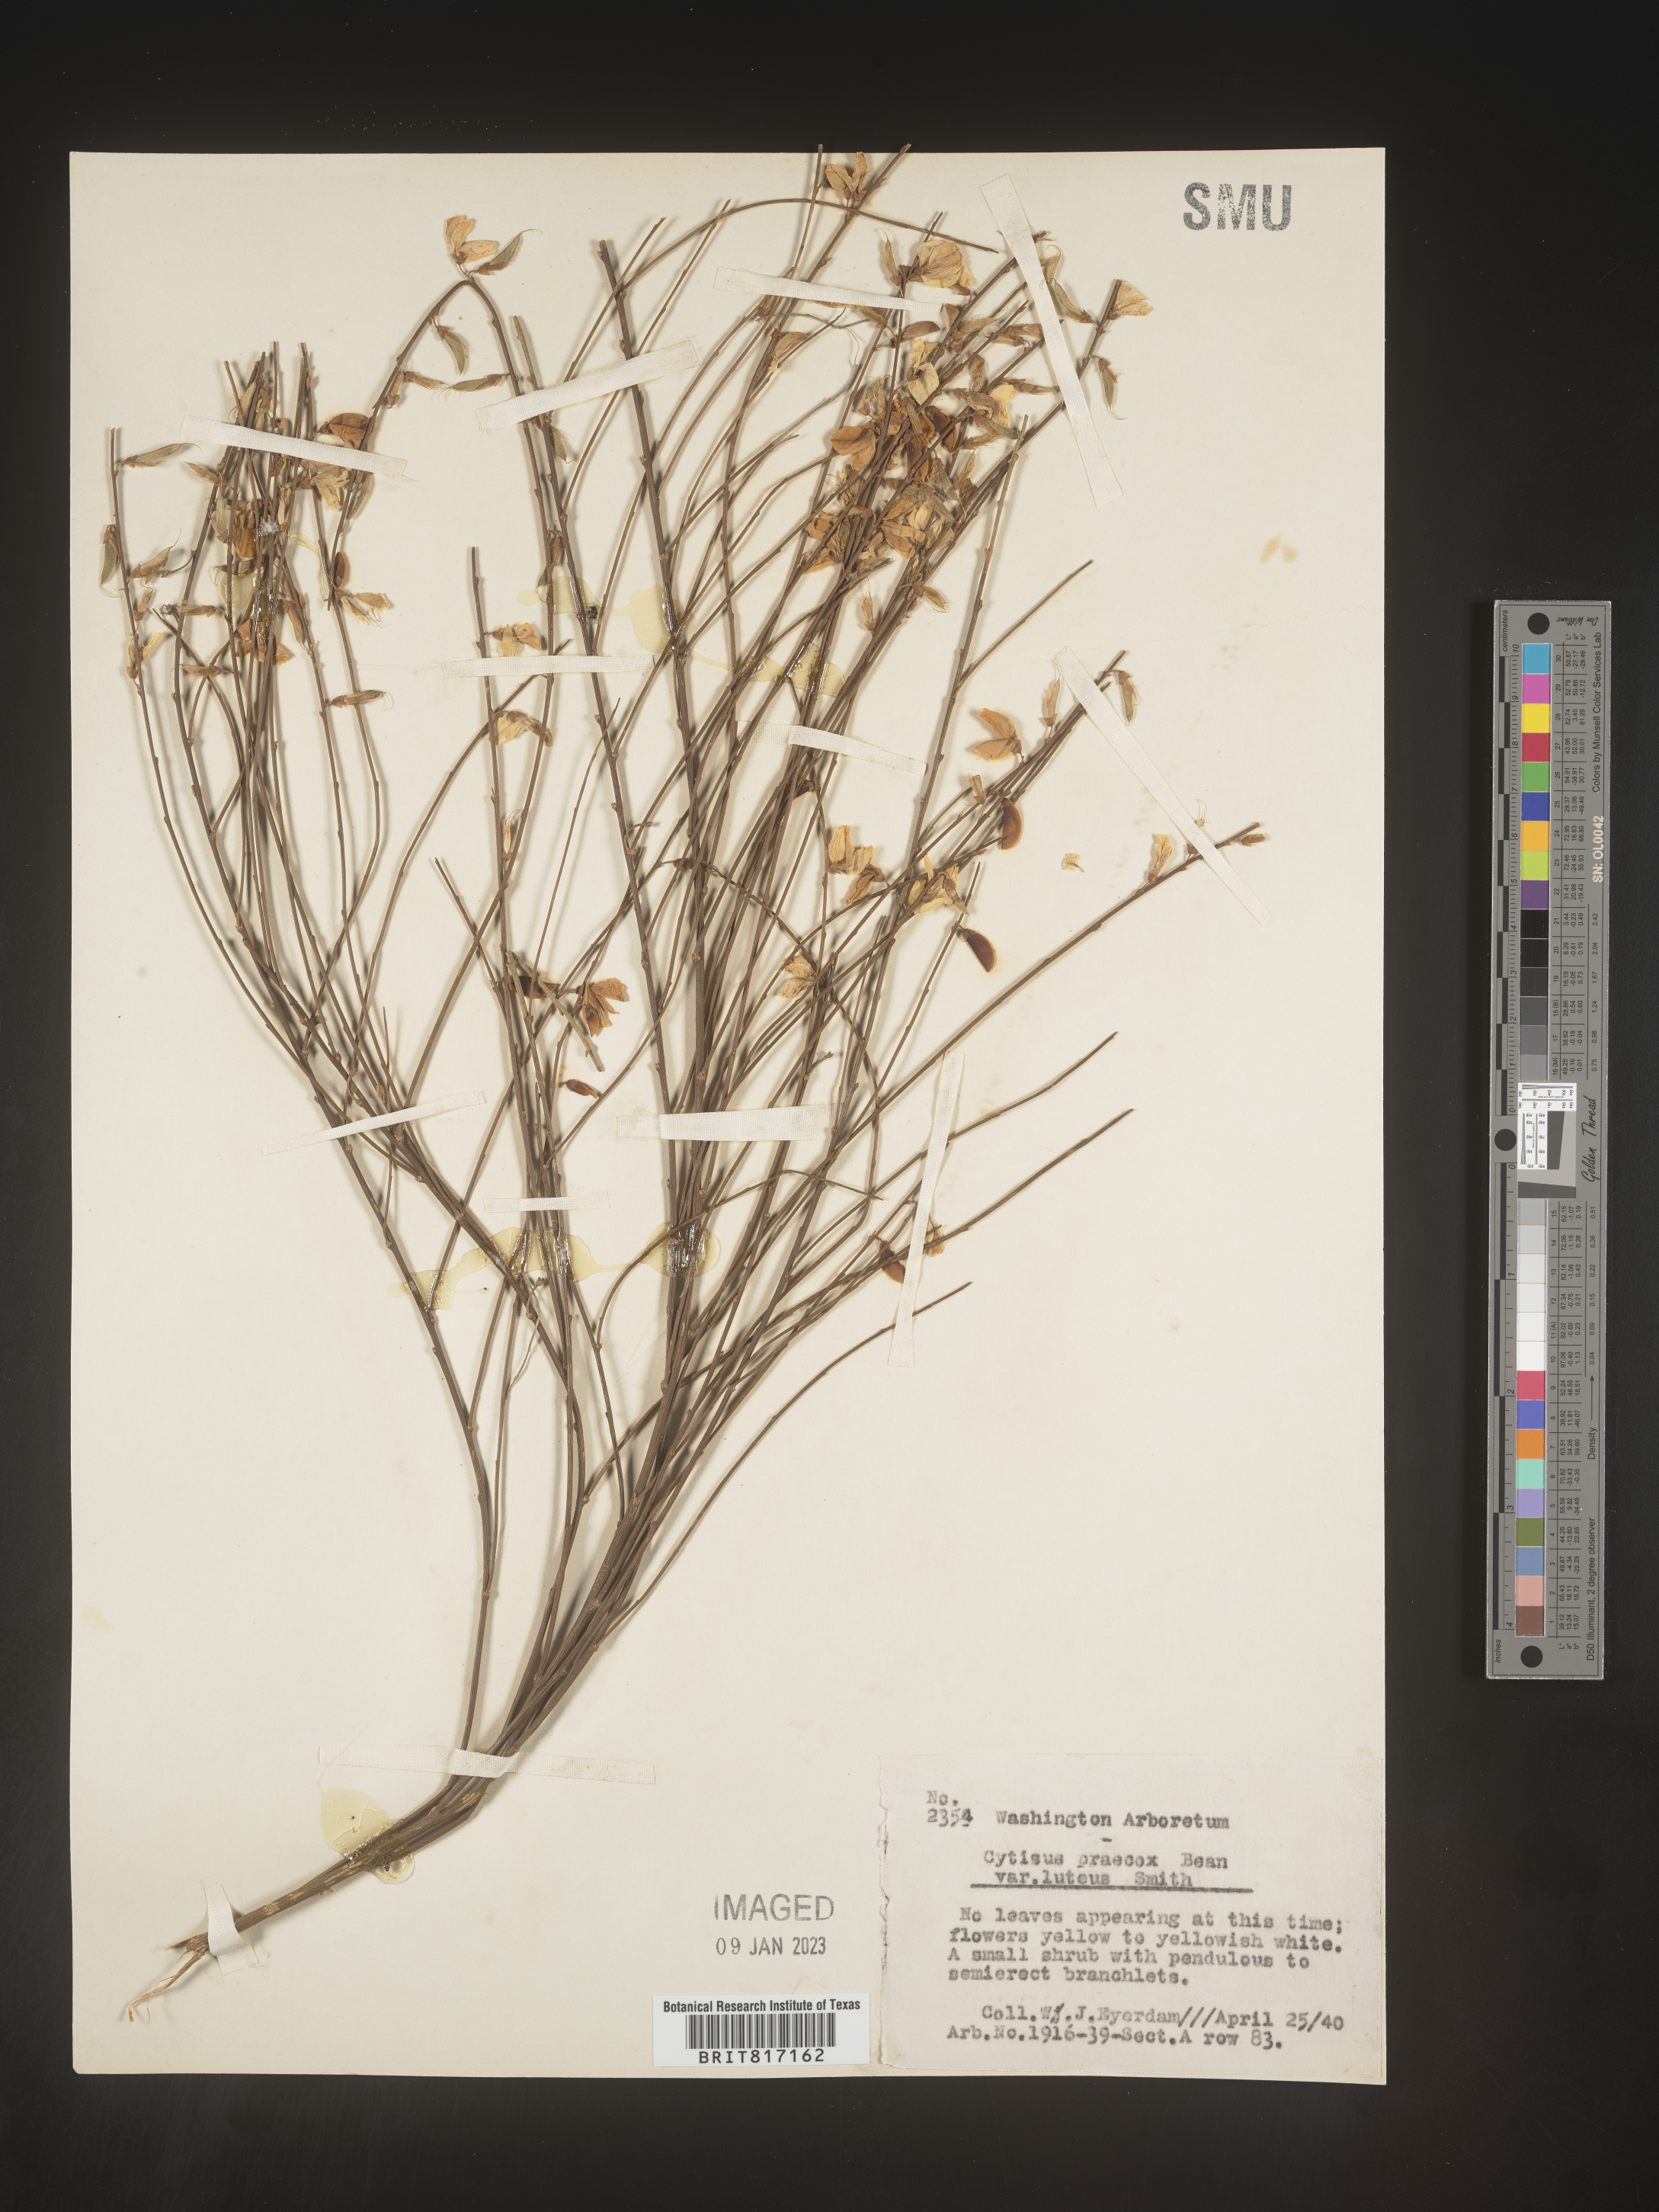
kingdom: Plantae
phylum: Tracheophyta
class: Magnoliopsida
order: Fabales
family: Fabaceae
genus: Cytisus
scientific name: Cytisus
